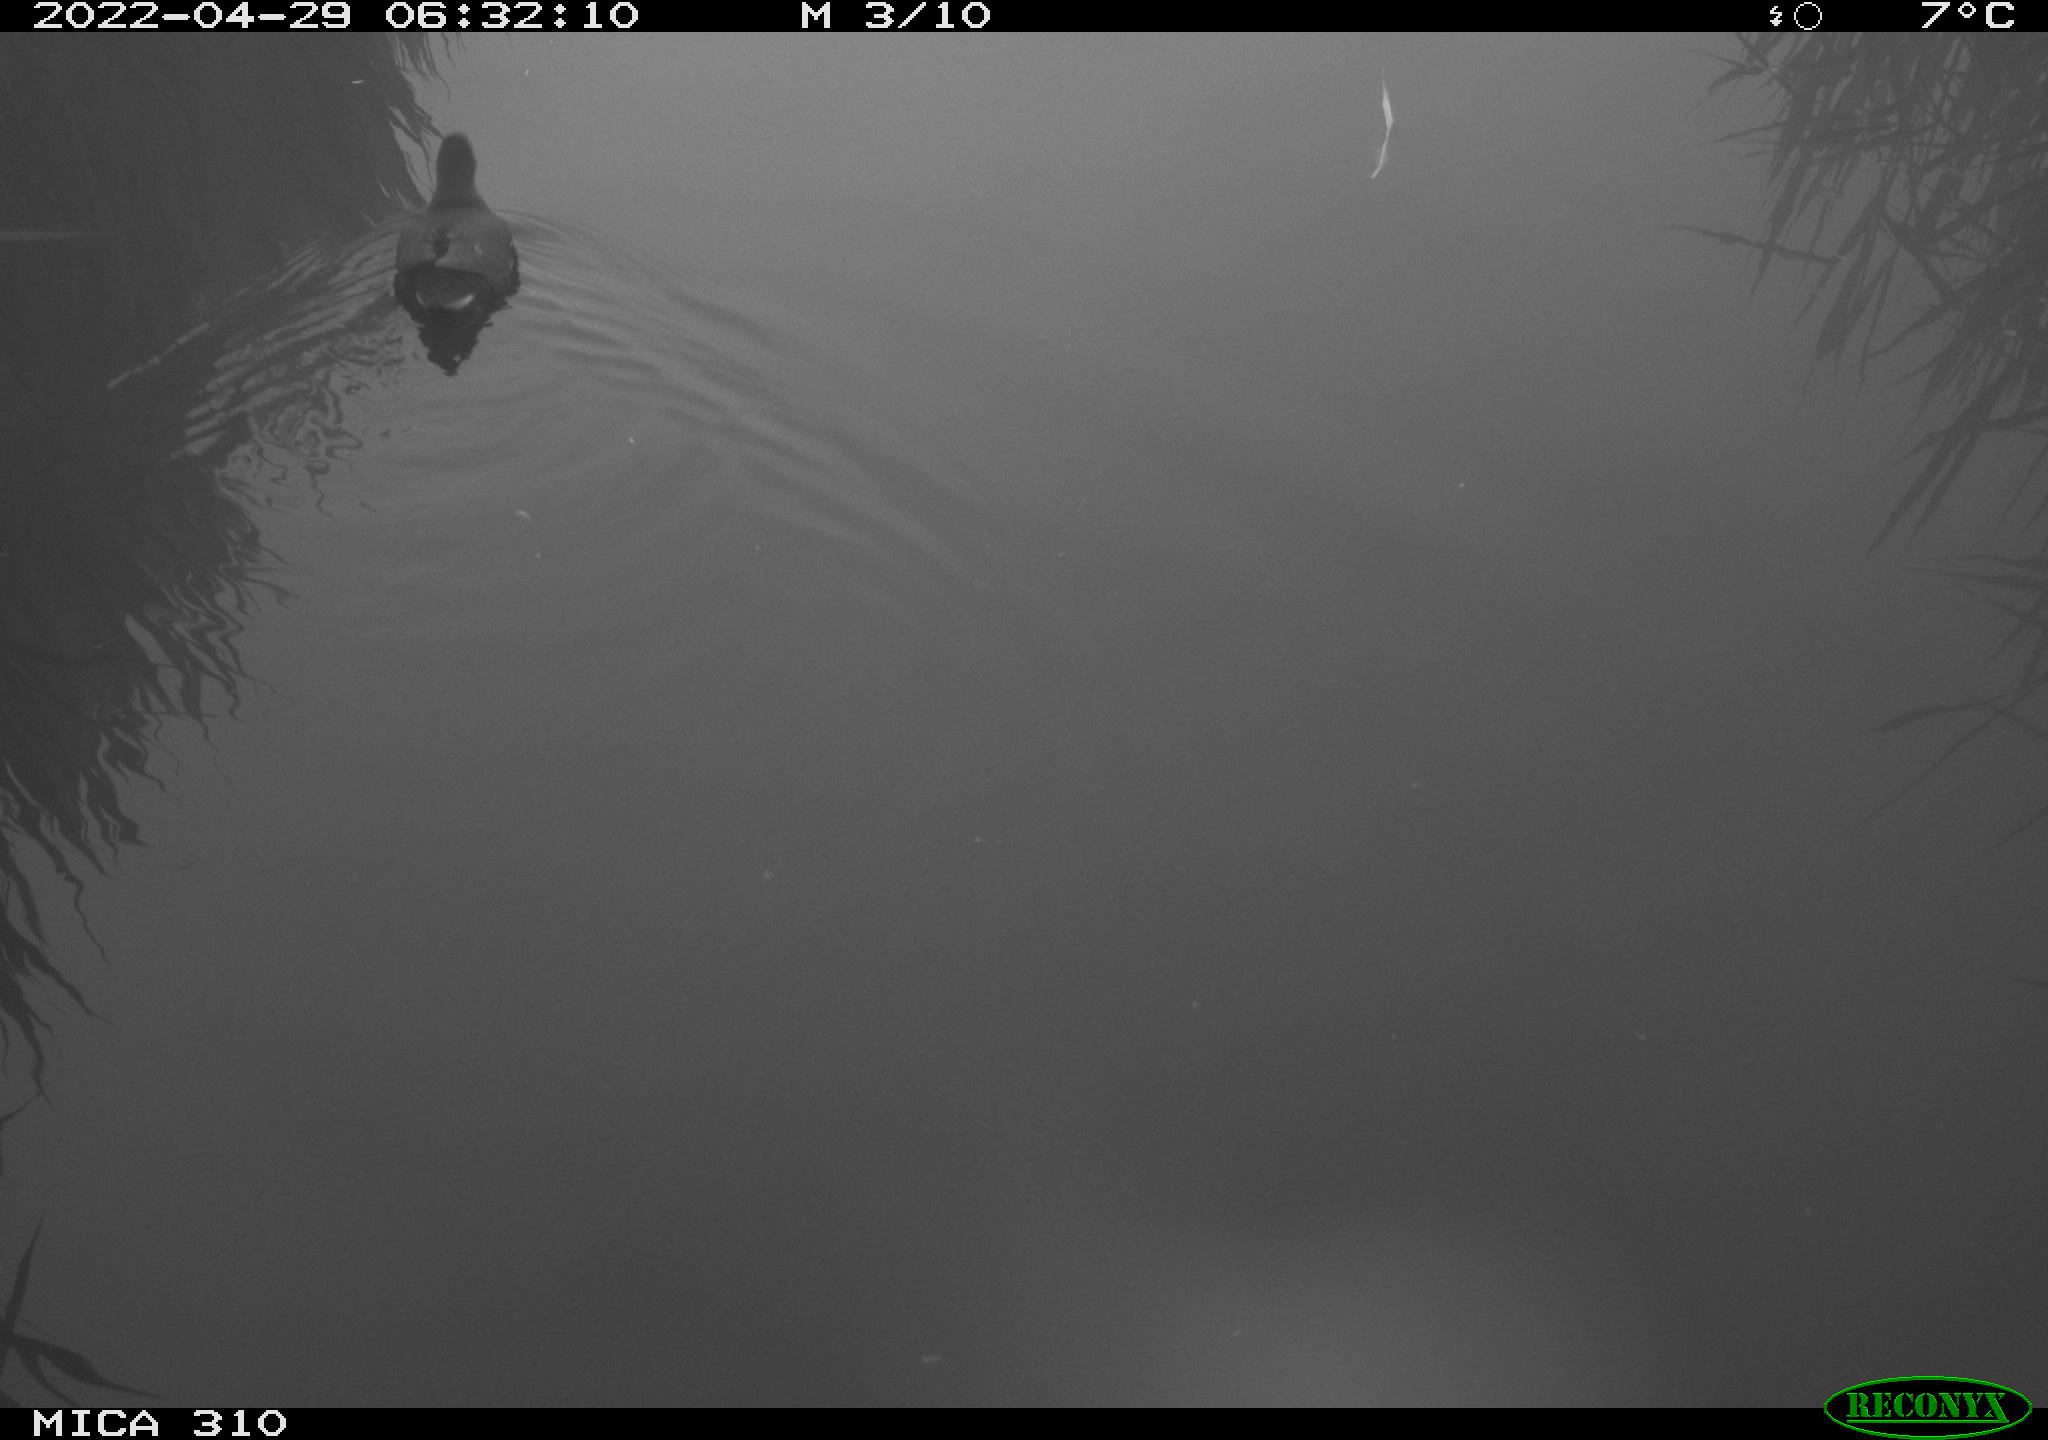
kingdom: Animalia
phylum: Chordata
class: Aves
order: Gruiformes
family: Rallidae
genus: Gallinula
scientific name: Gallinula chloropus
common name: Common moorhen
